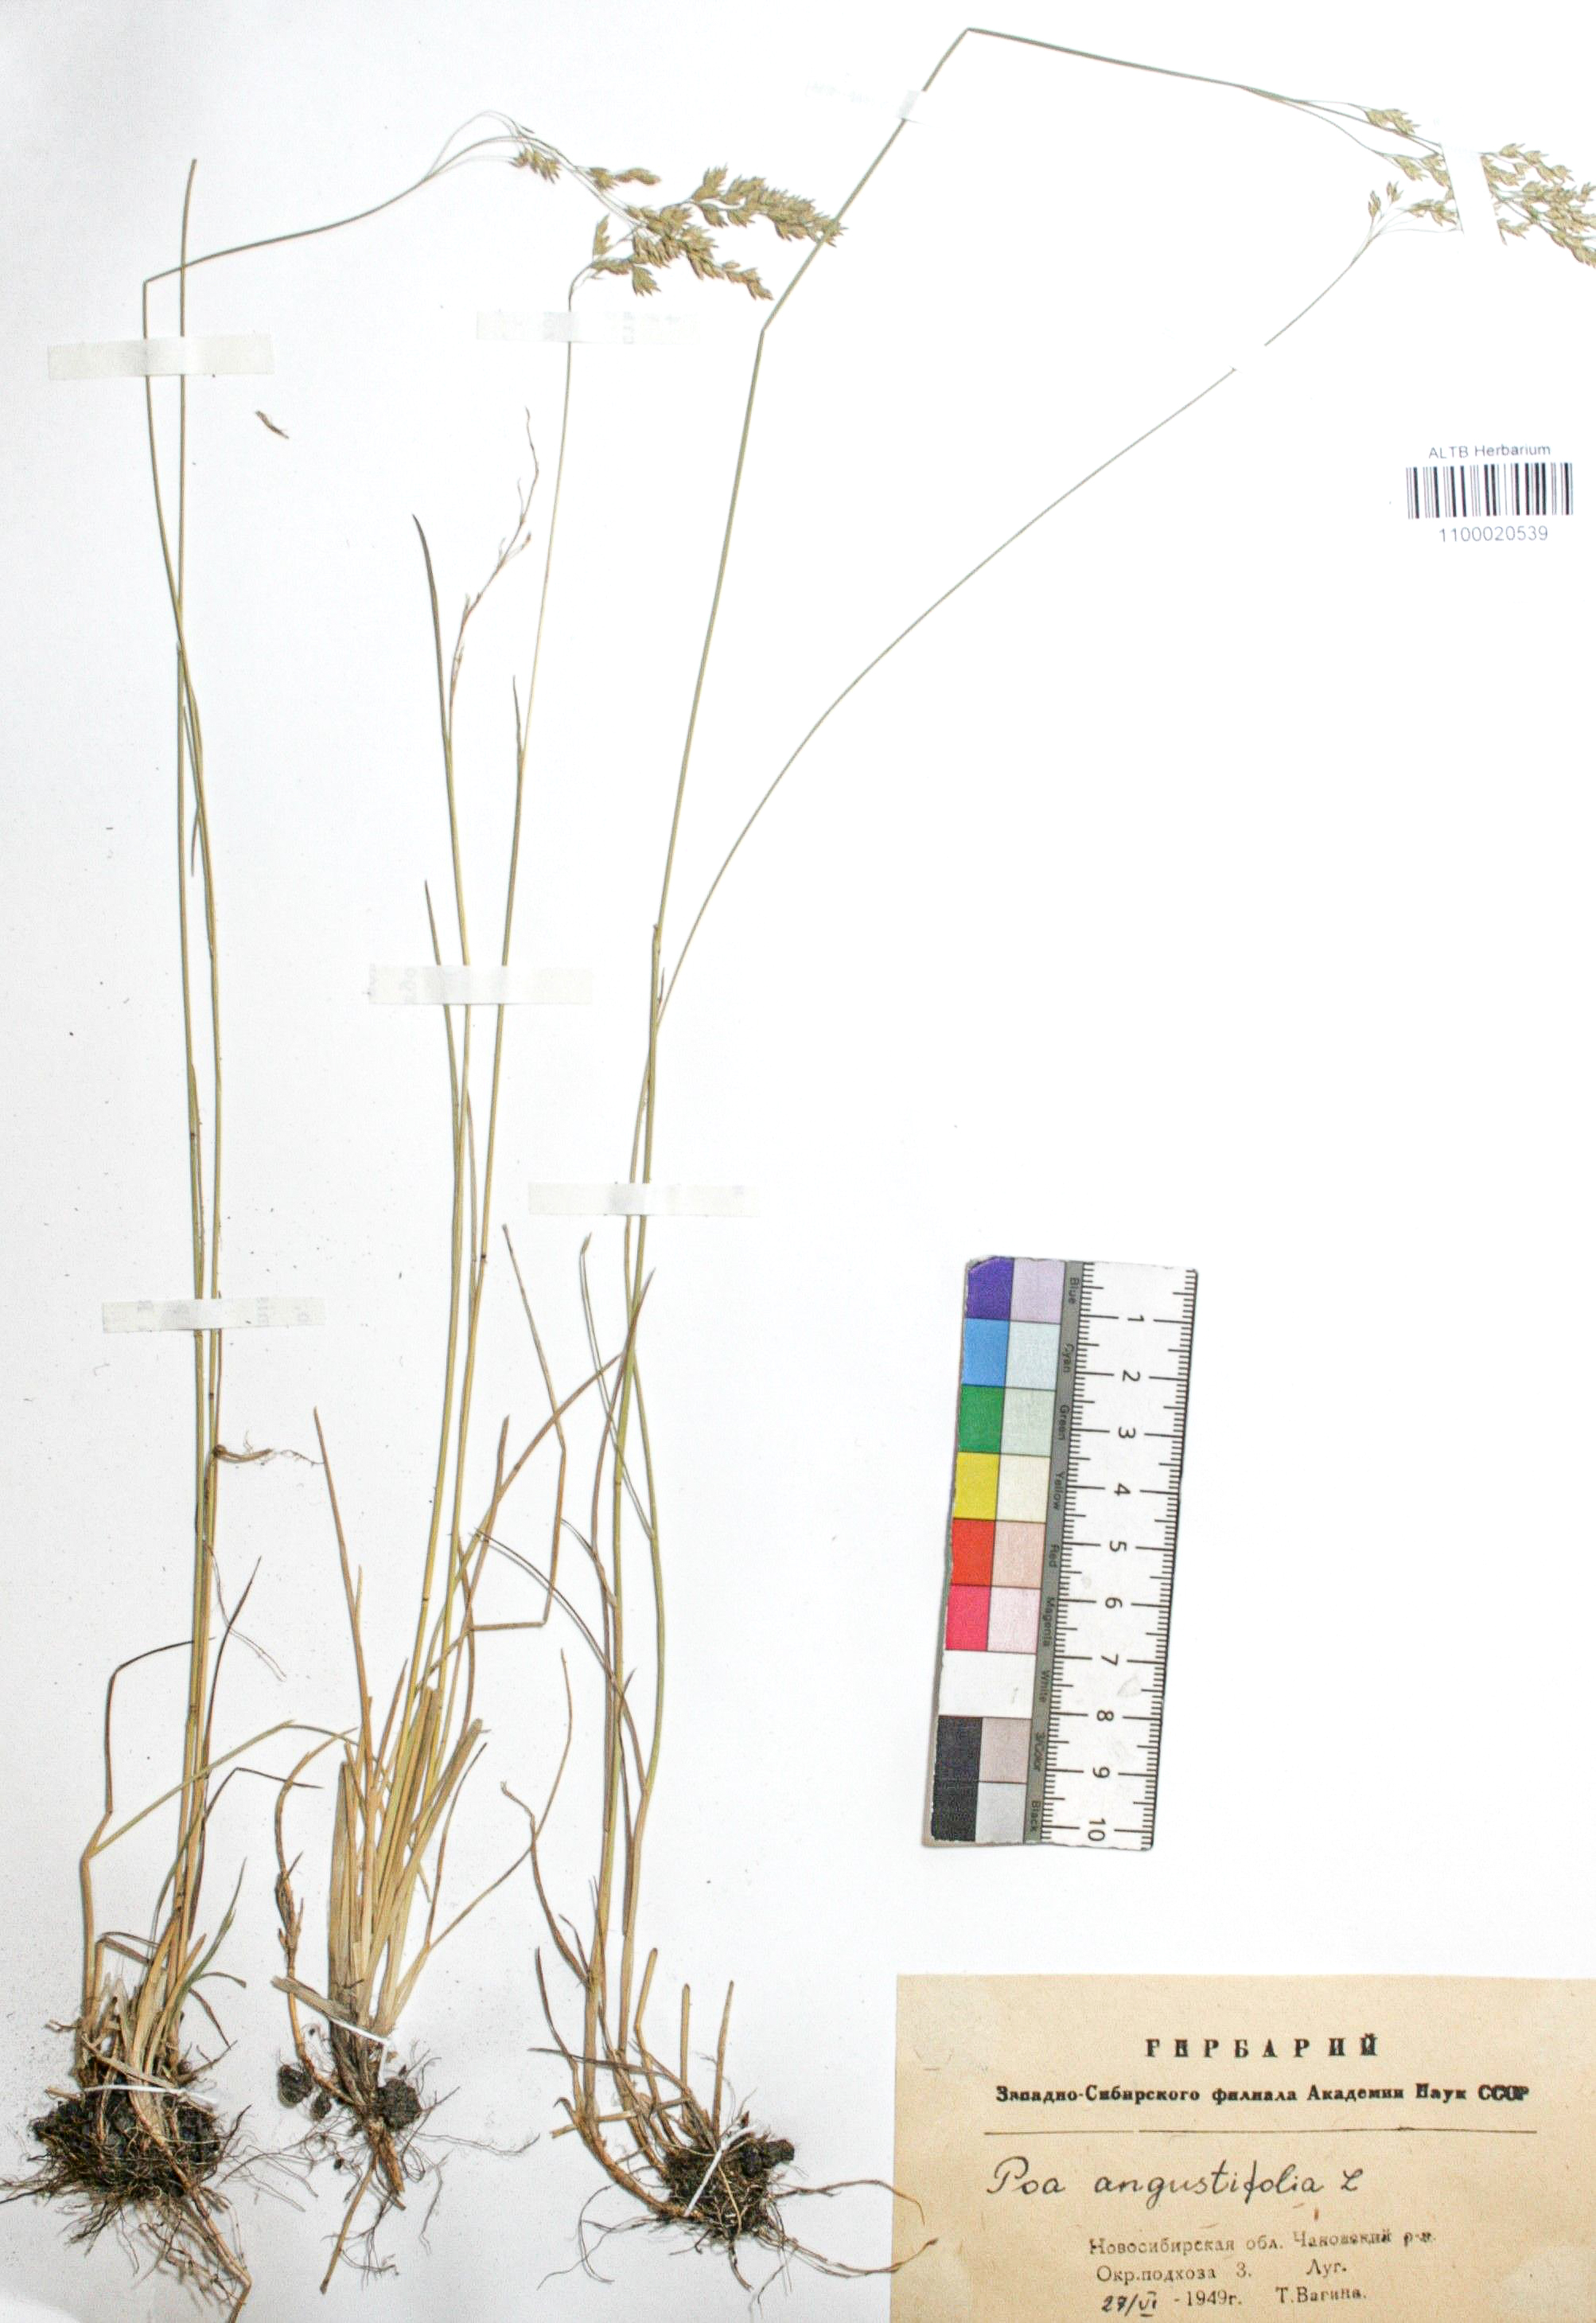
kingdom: Plantae
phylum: Tracheophyta
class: Liliopsida
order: Poales
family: Poaceae
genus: Poa
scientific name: Poa angustifolia
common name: Narrow-leaved meadow-grass
